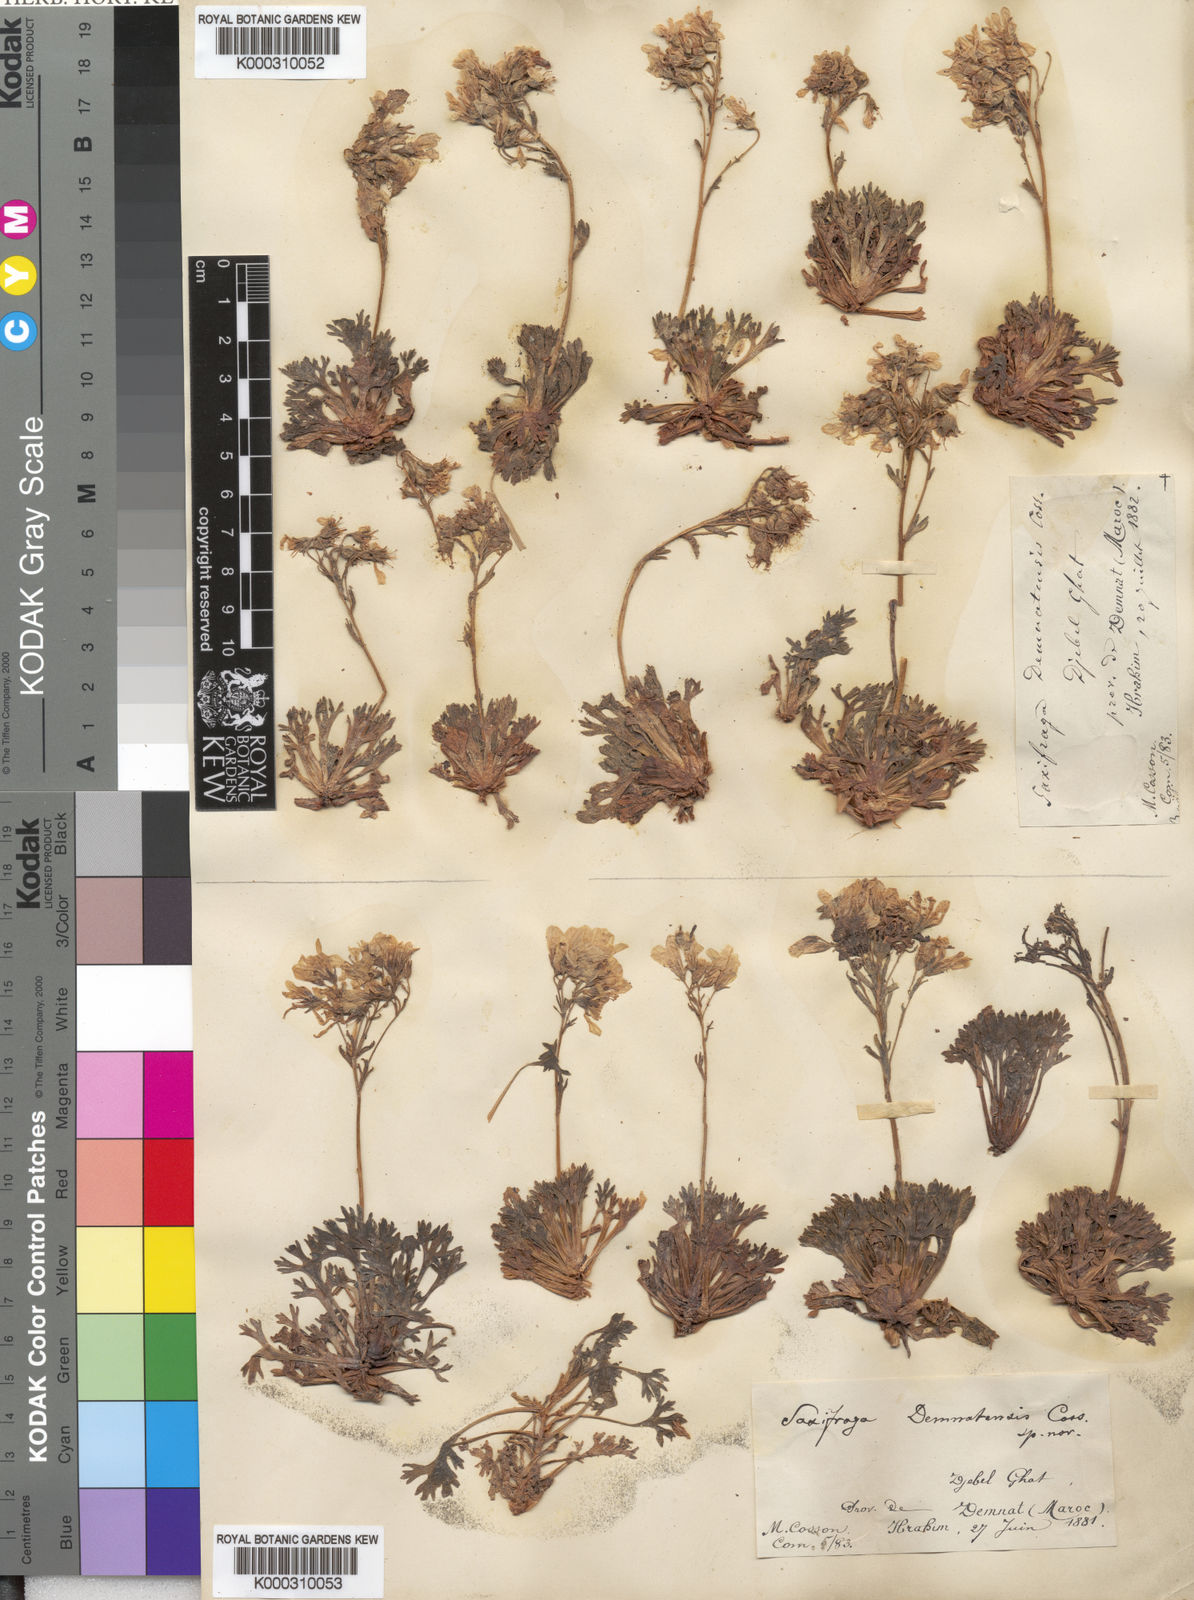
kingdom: Plantae
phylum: Tracheophyta
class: Magnoliopsida
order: Saxifragales
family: Saxifragaceae
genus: Saxifraga
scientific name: Saxifraga
